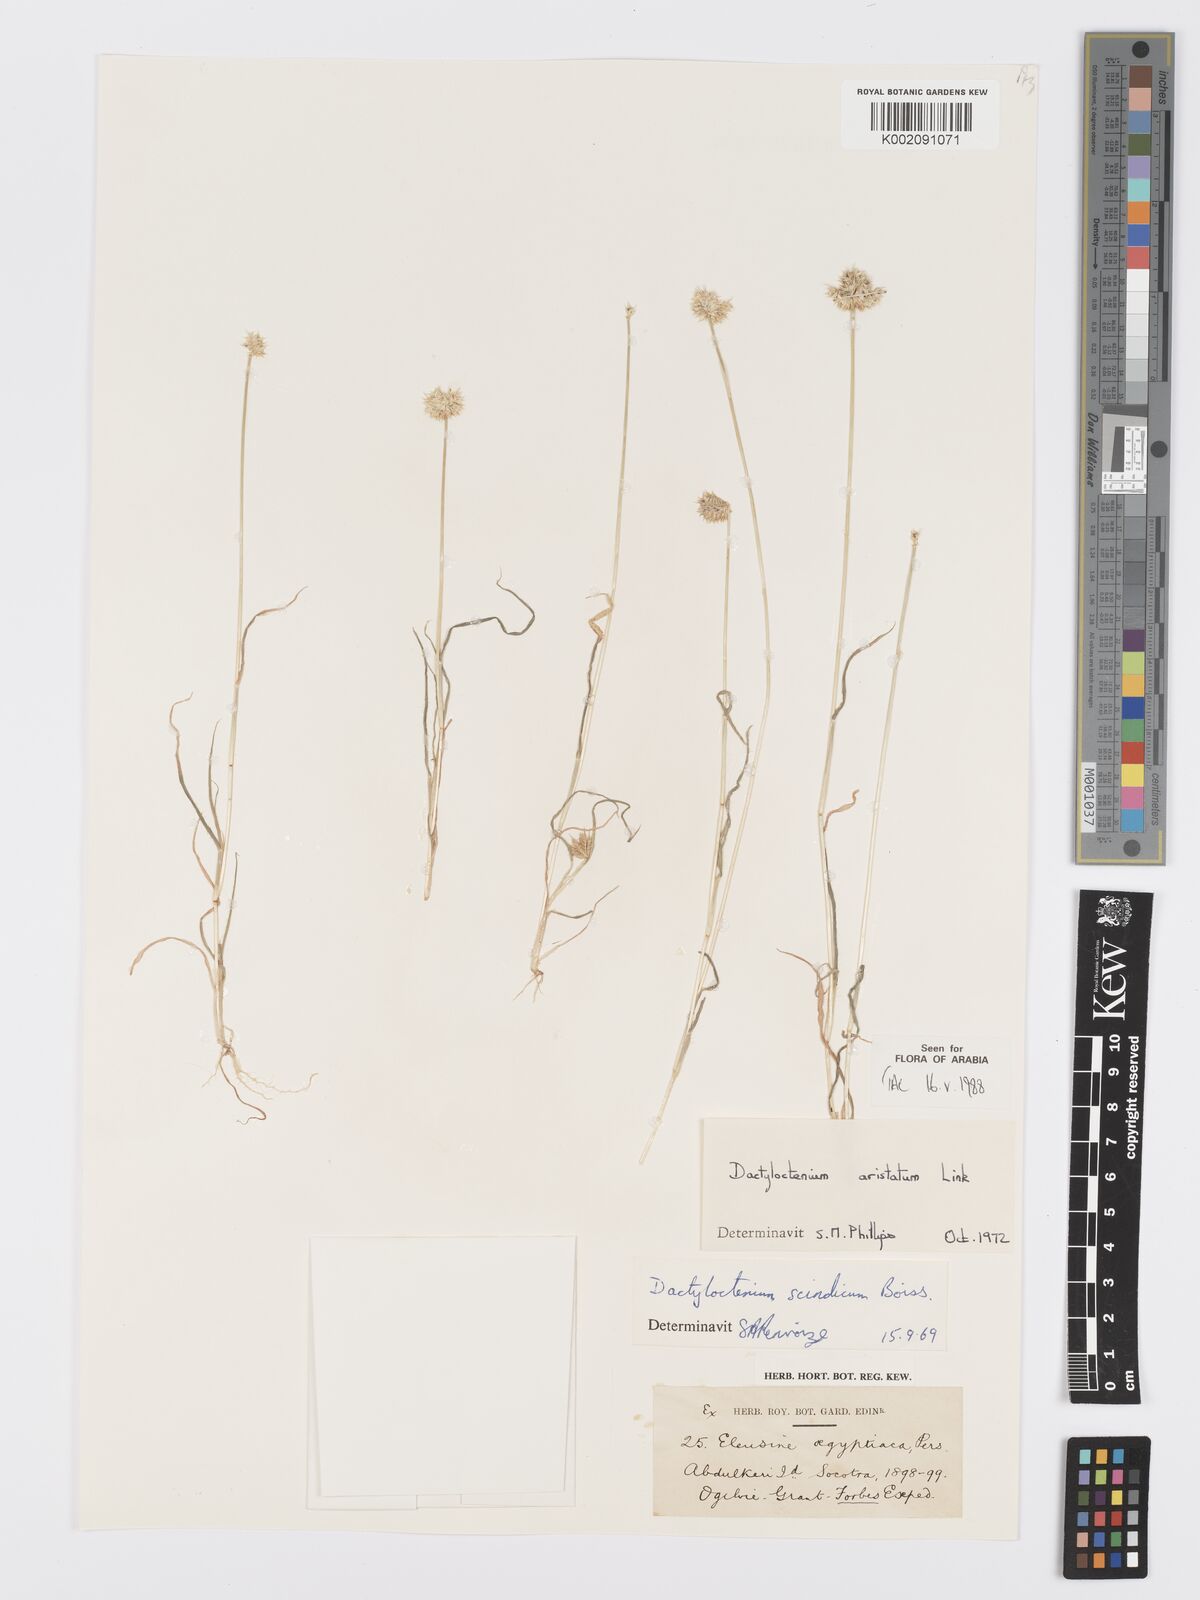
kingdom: Plantae
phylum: Tracheophyta
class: Liliopsida
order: Poales
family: Poaceae
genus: Dactyloctenium
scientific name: Dactyloctenium aristatum
